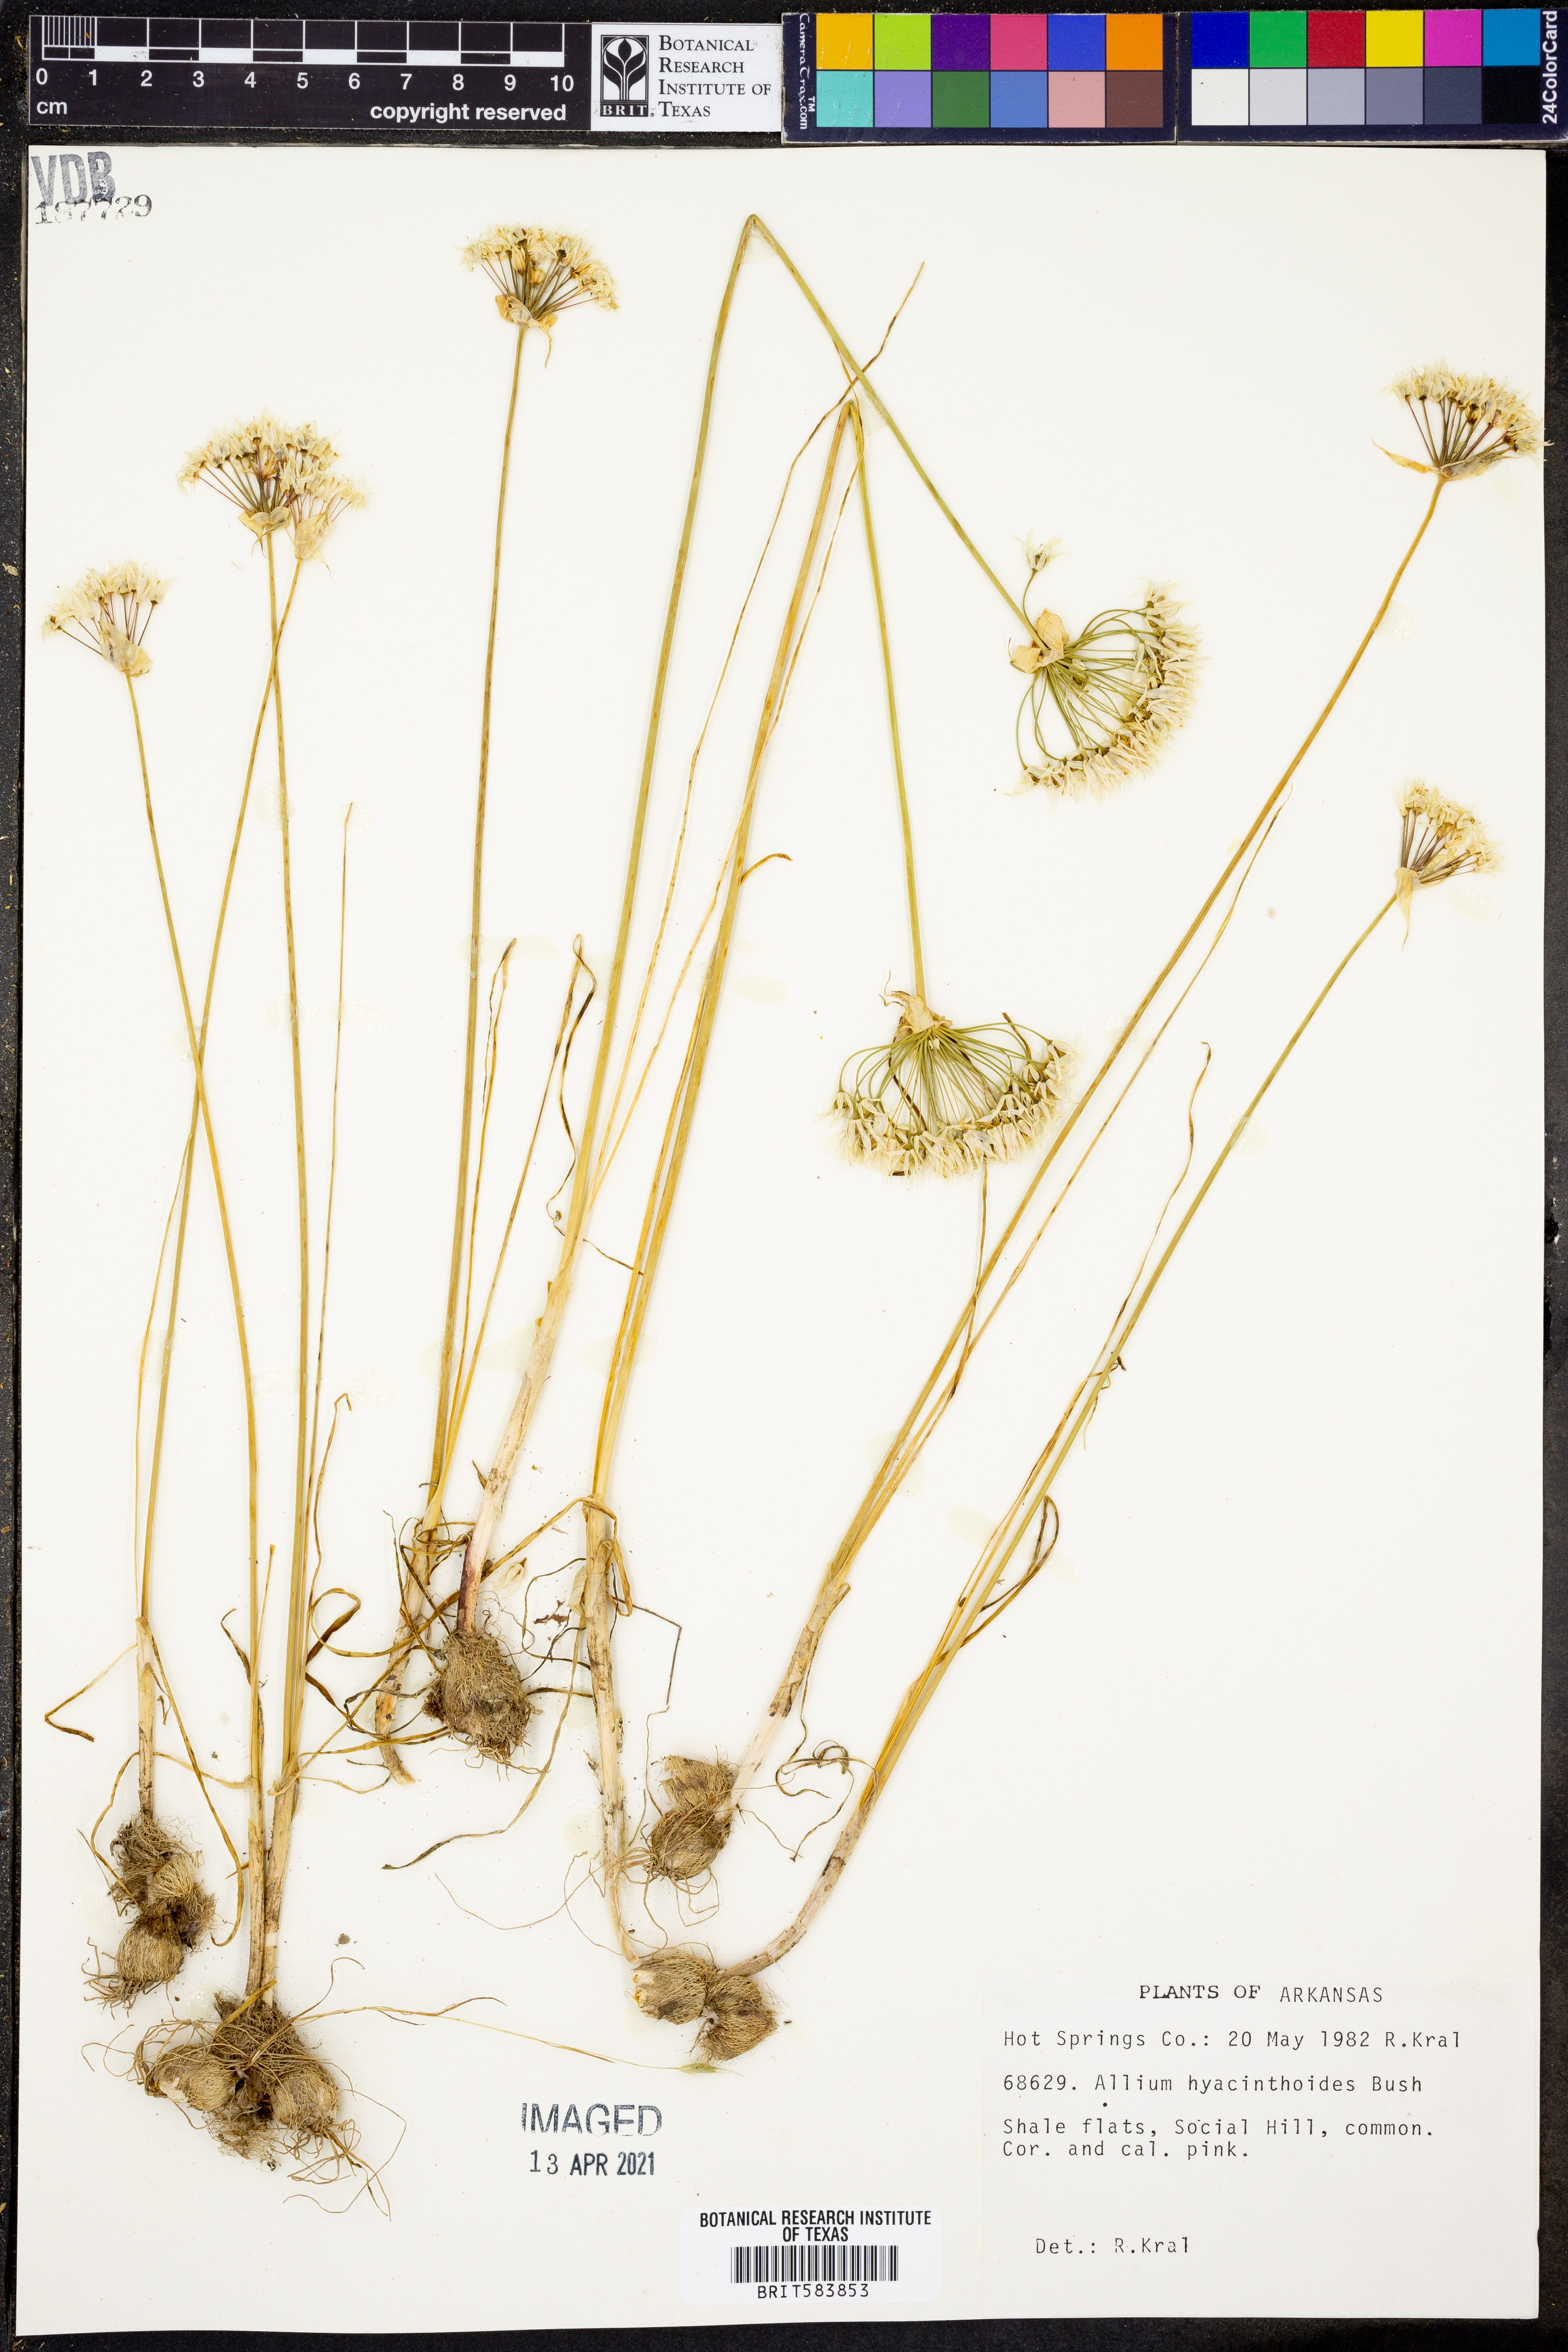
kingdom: Plantae
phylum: Tracheophyta
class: Liliopsida
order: Asparagales
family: Amaryllidaceae
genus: Allium
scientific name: Allium canadense
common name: Meadow garlic
